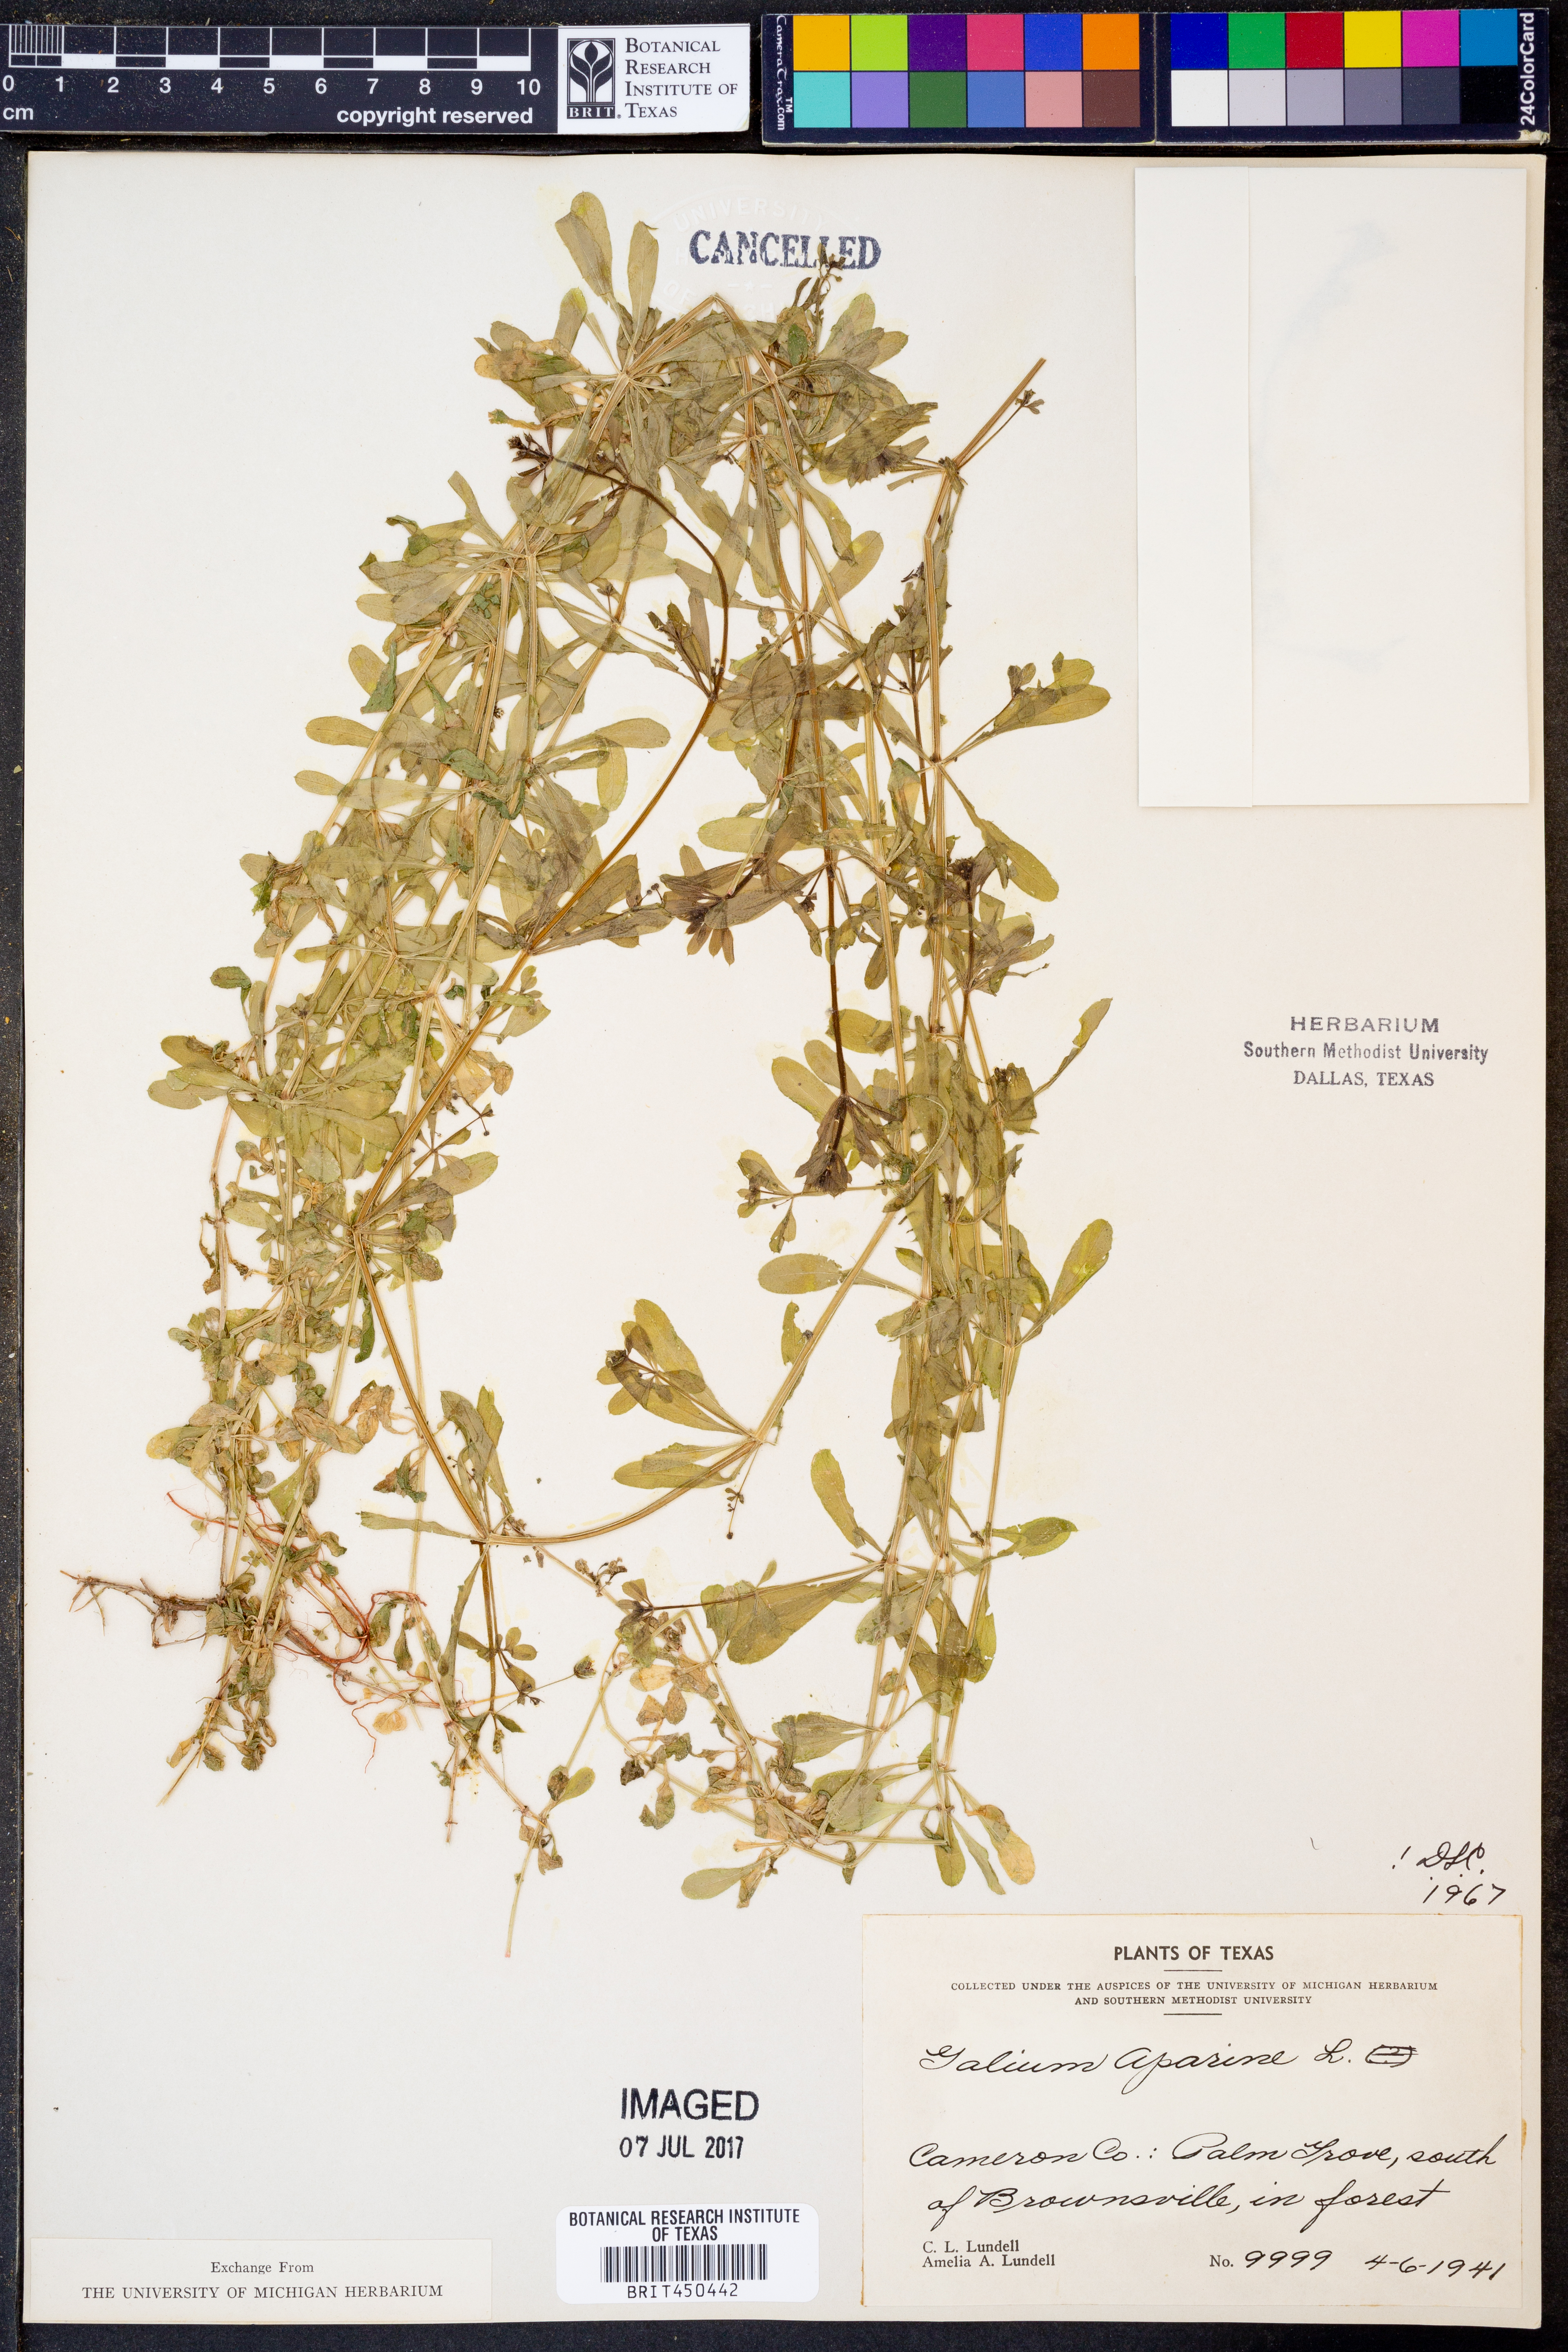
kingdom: Plantae
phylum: Tracheophyta
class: Magnoliopsida
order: Gentianales
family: Rubiaceae
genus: Galium
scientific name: Galium aparine
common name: Cleavers
